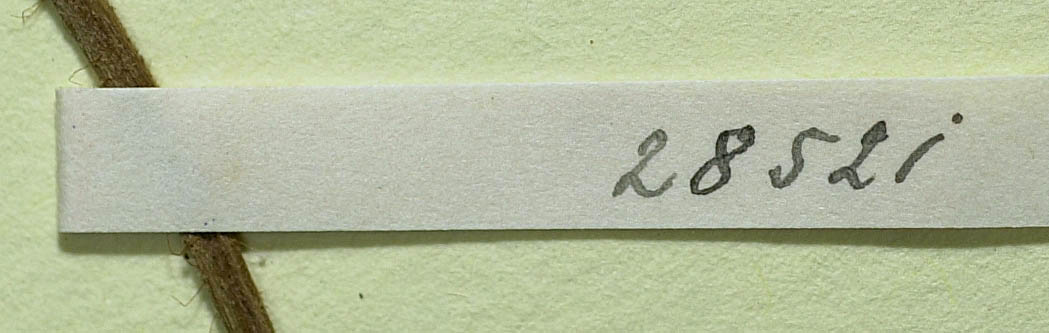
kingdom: Plantae
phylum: Tracheophyta
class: Magnoliopsida
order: Asterales
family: Asteraceae
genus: Pilosella
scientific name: Pilosella officinarum
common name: Mouse-ear hawkweed
